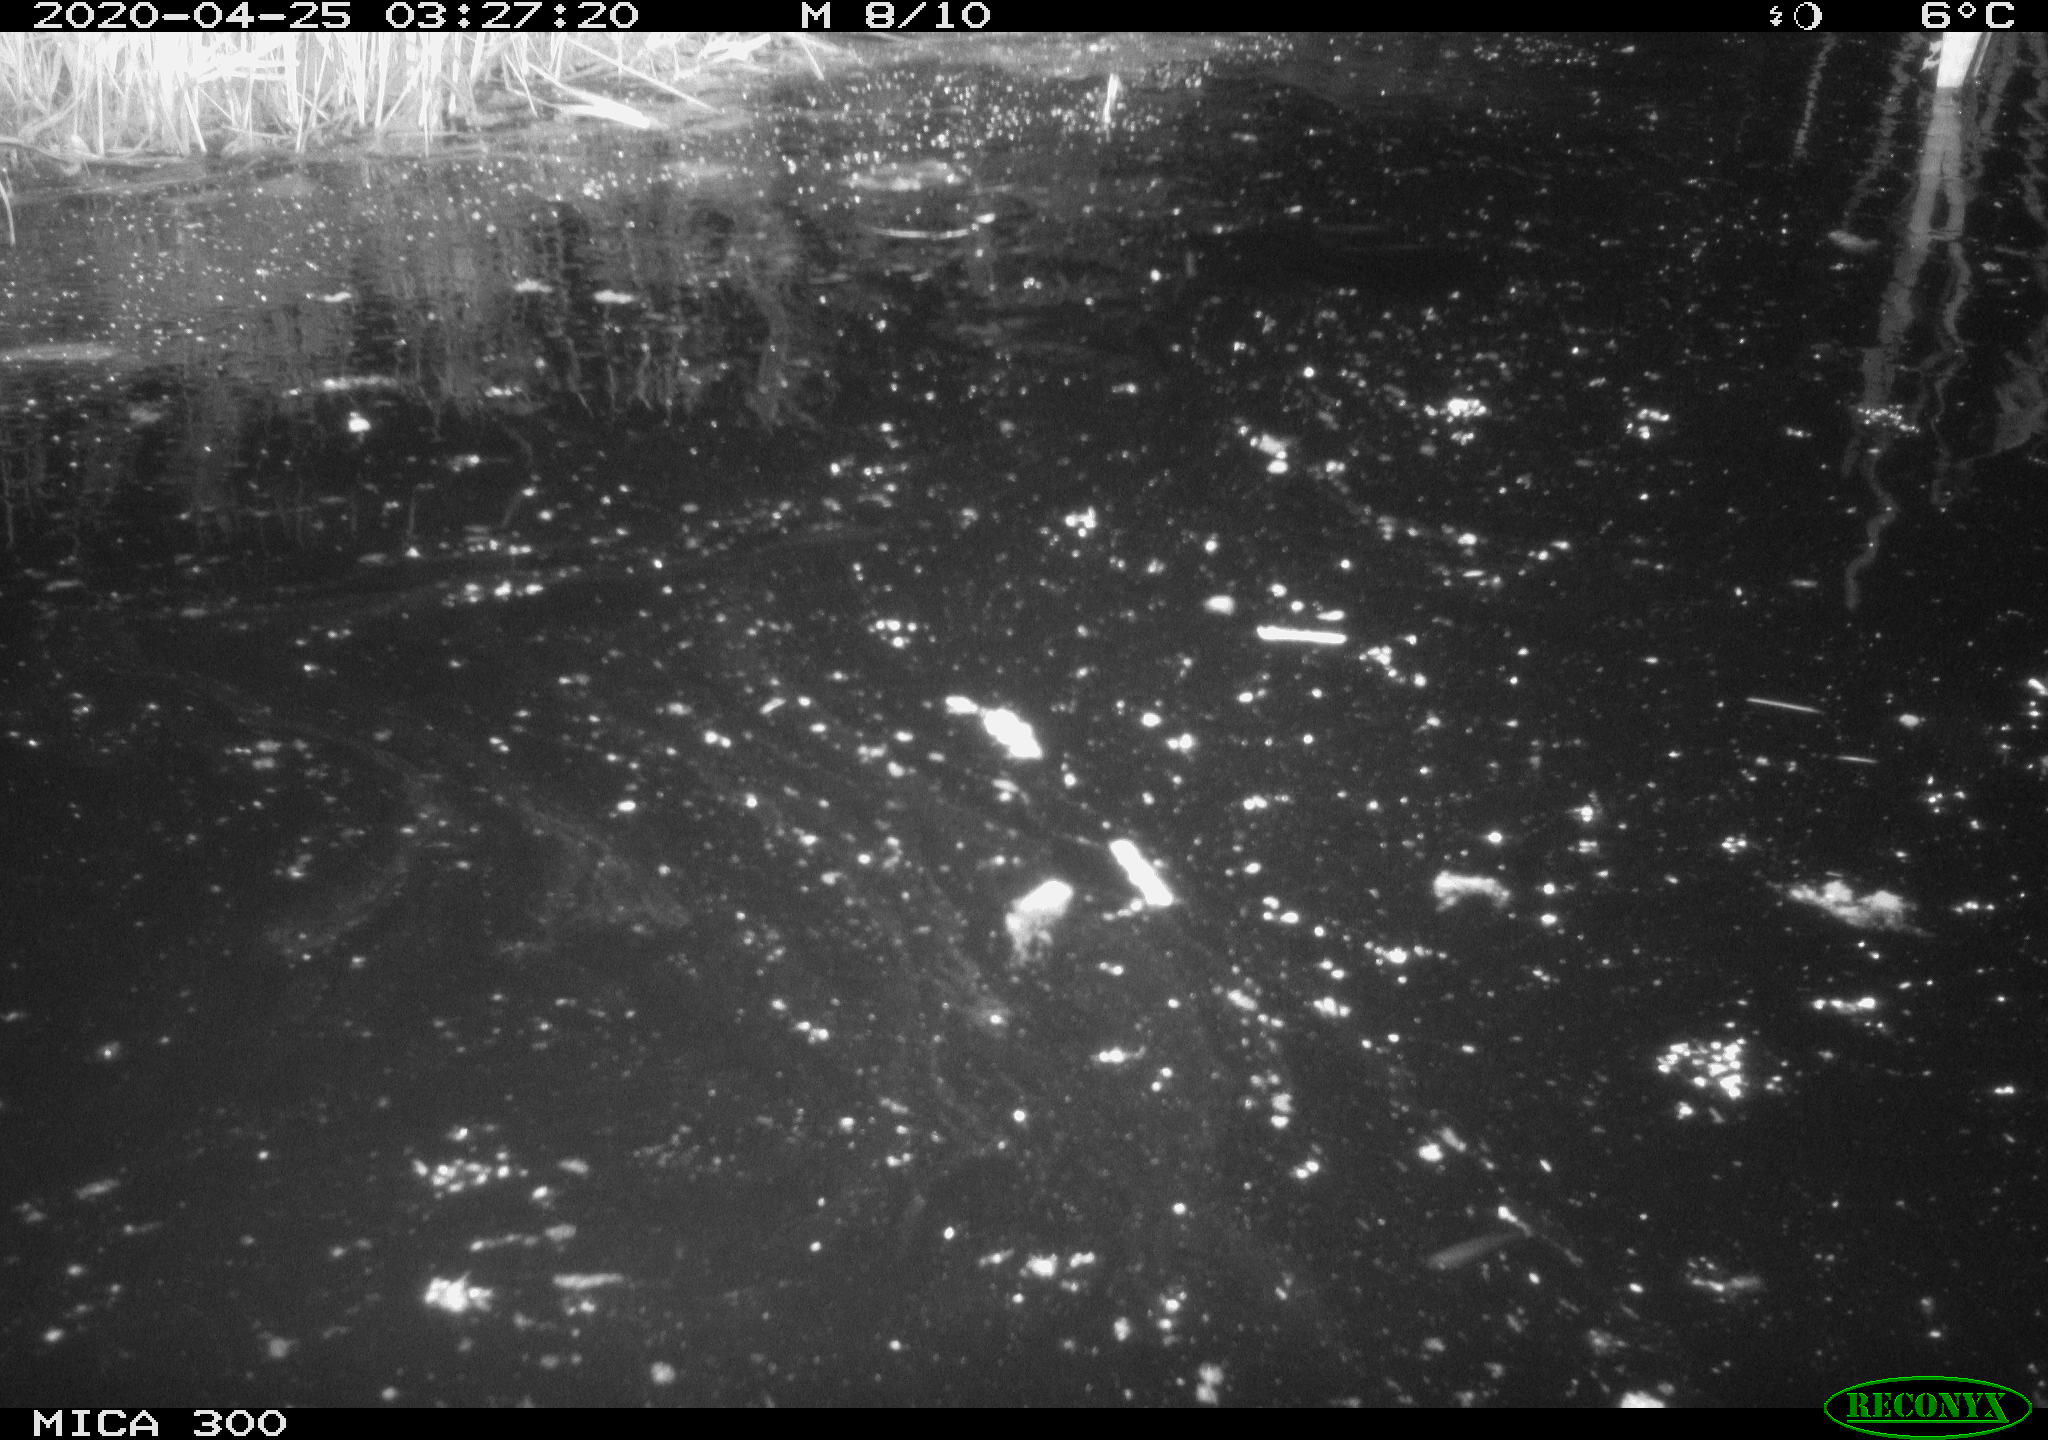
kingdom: Animalia
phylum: Chordata
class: Mammalia
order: Rodentia
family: Castoridae
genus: Castor
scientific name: Castor fiber
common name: Eurasian beaver
